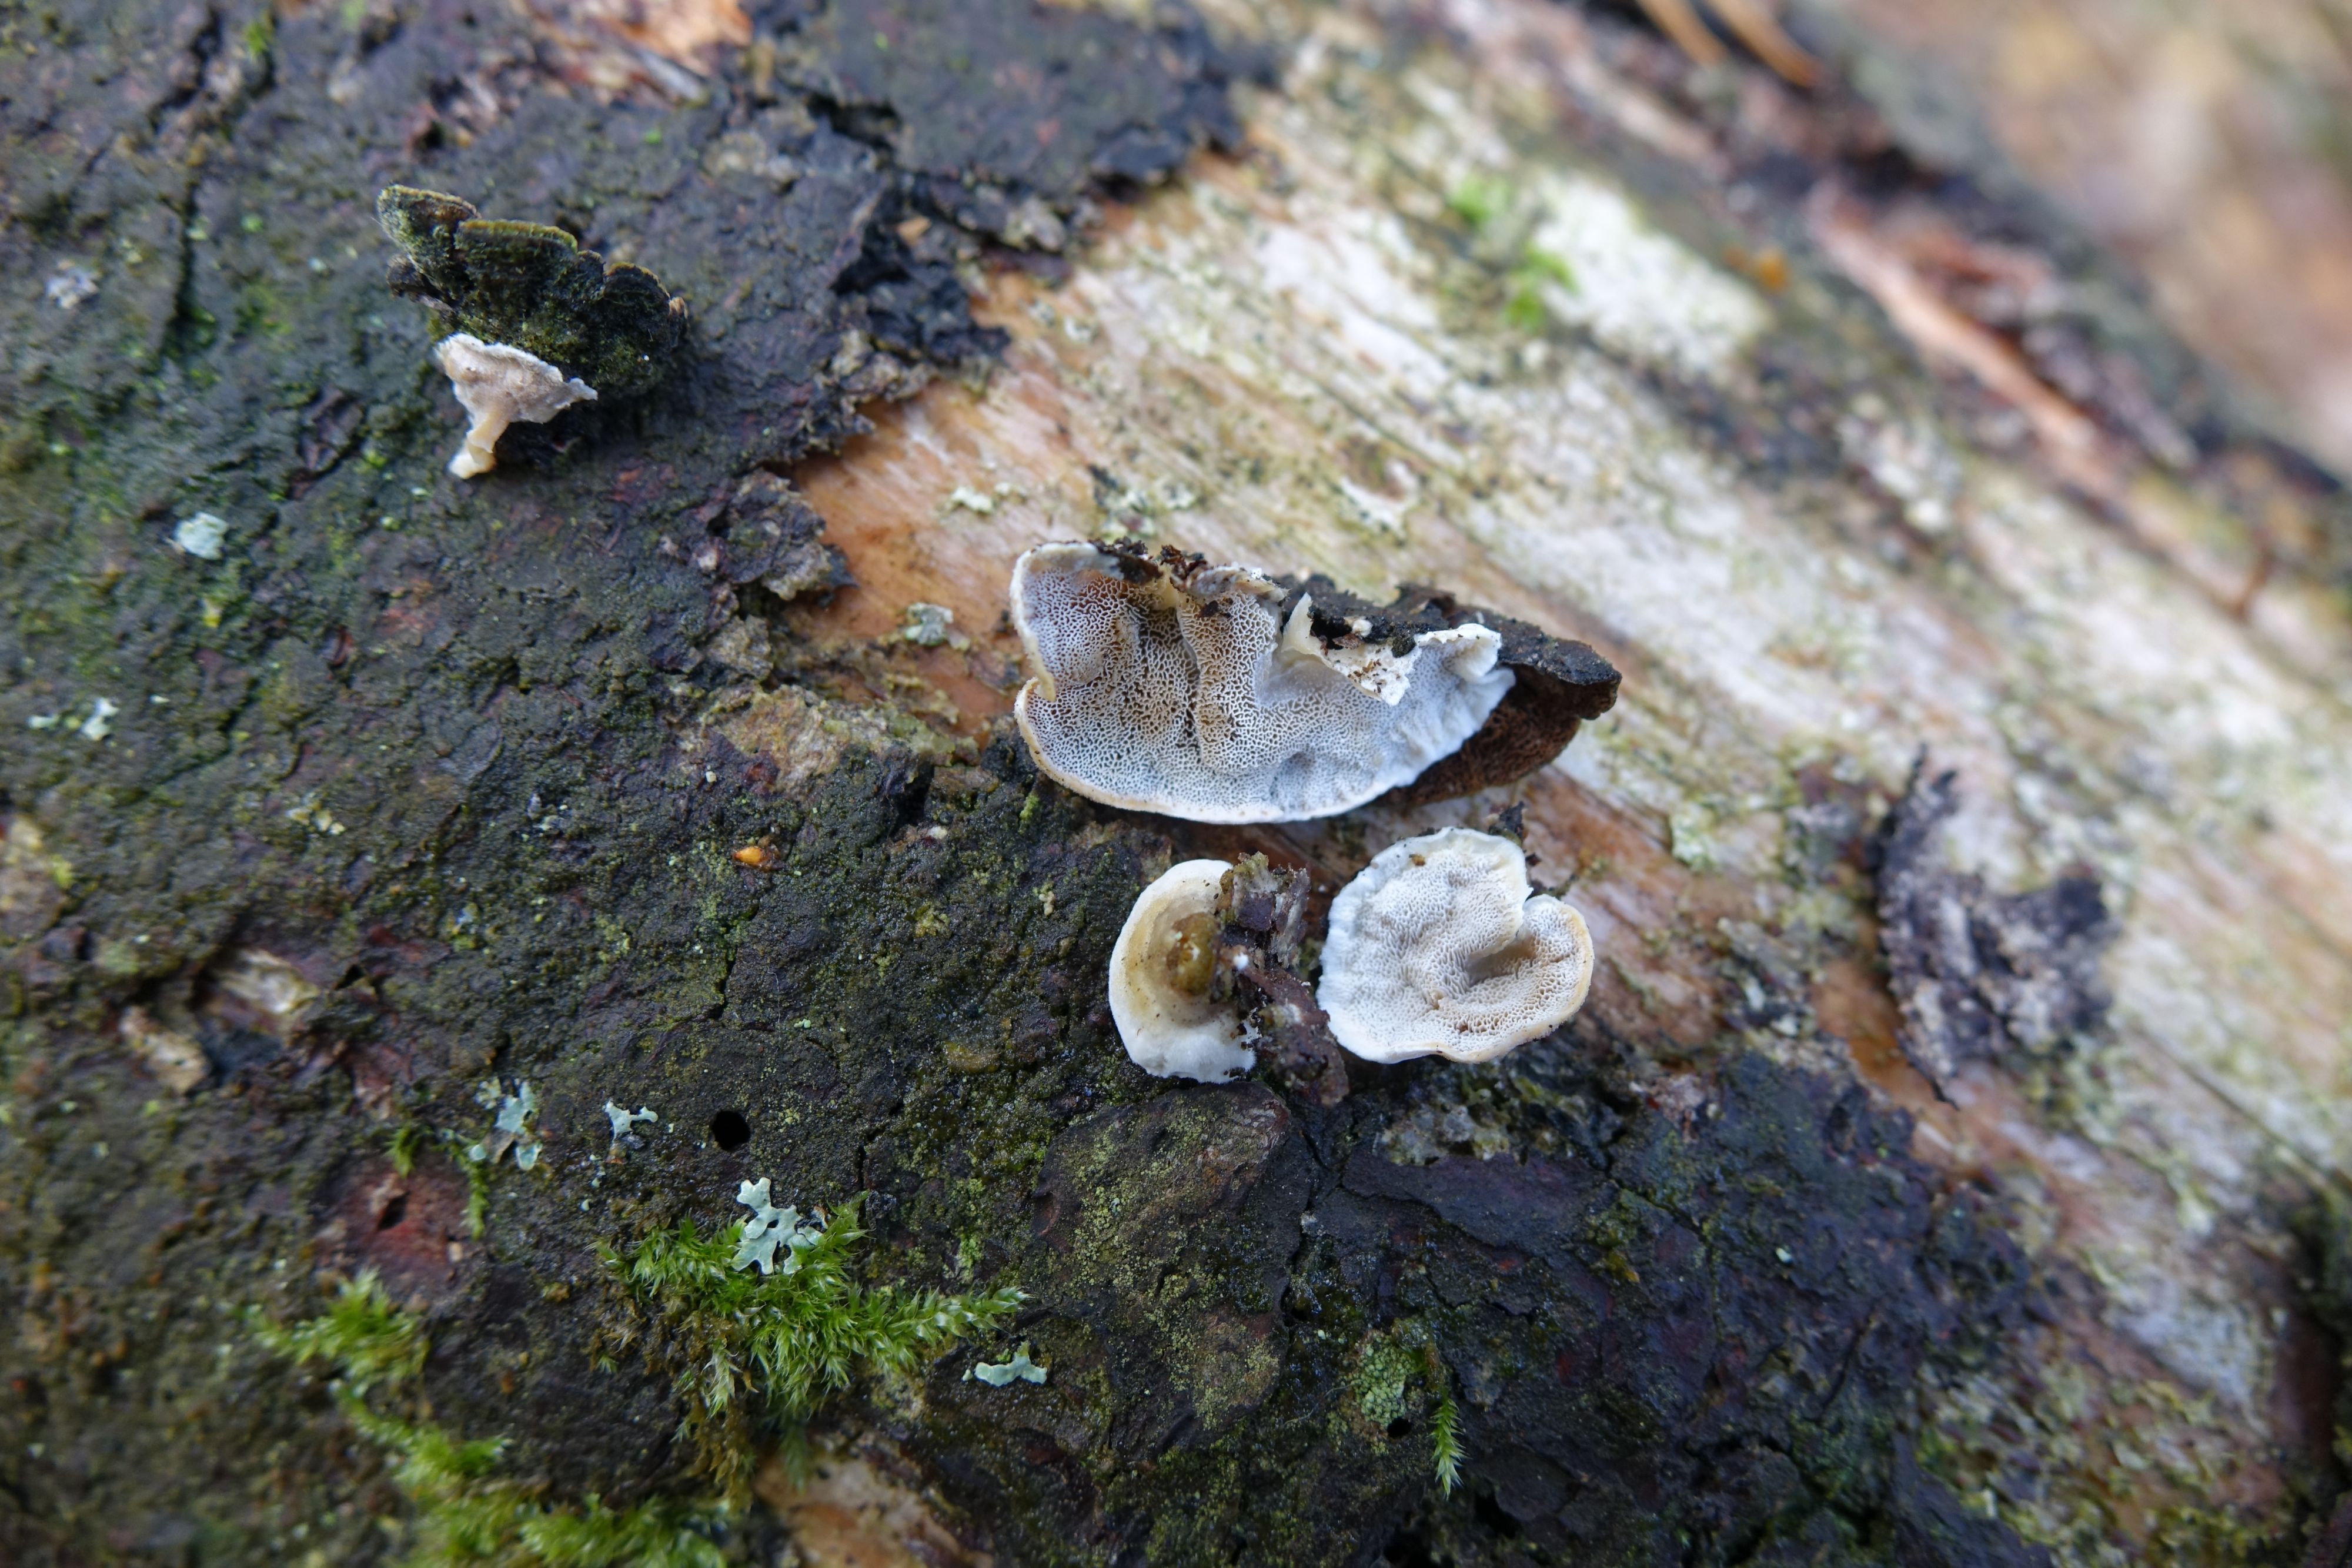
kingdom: Fungi
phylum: Basidiomycota
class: Agaricomycetes
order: Polyporales
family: Incrustoporiaceae
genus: Skeletocutis
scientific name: Skeletocutis carneogrisea
